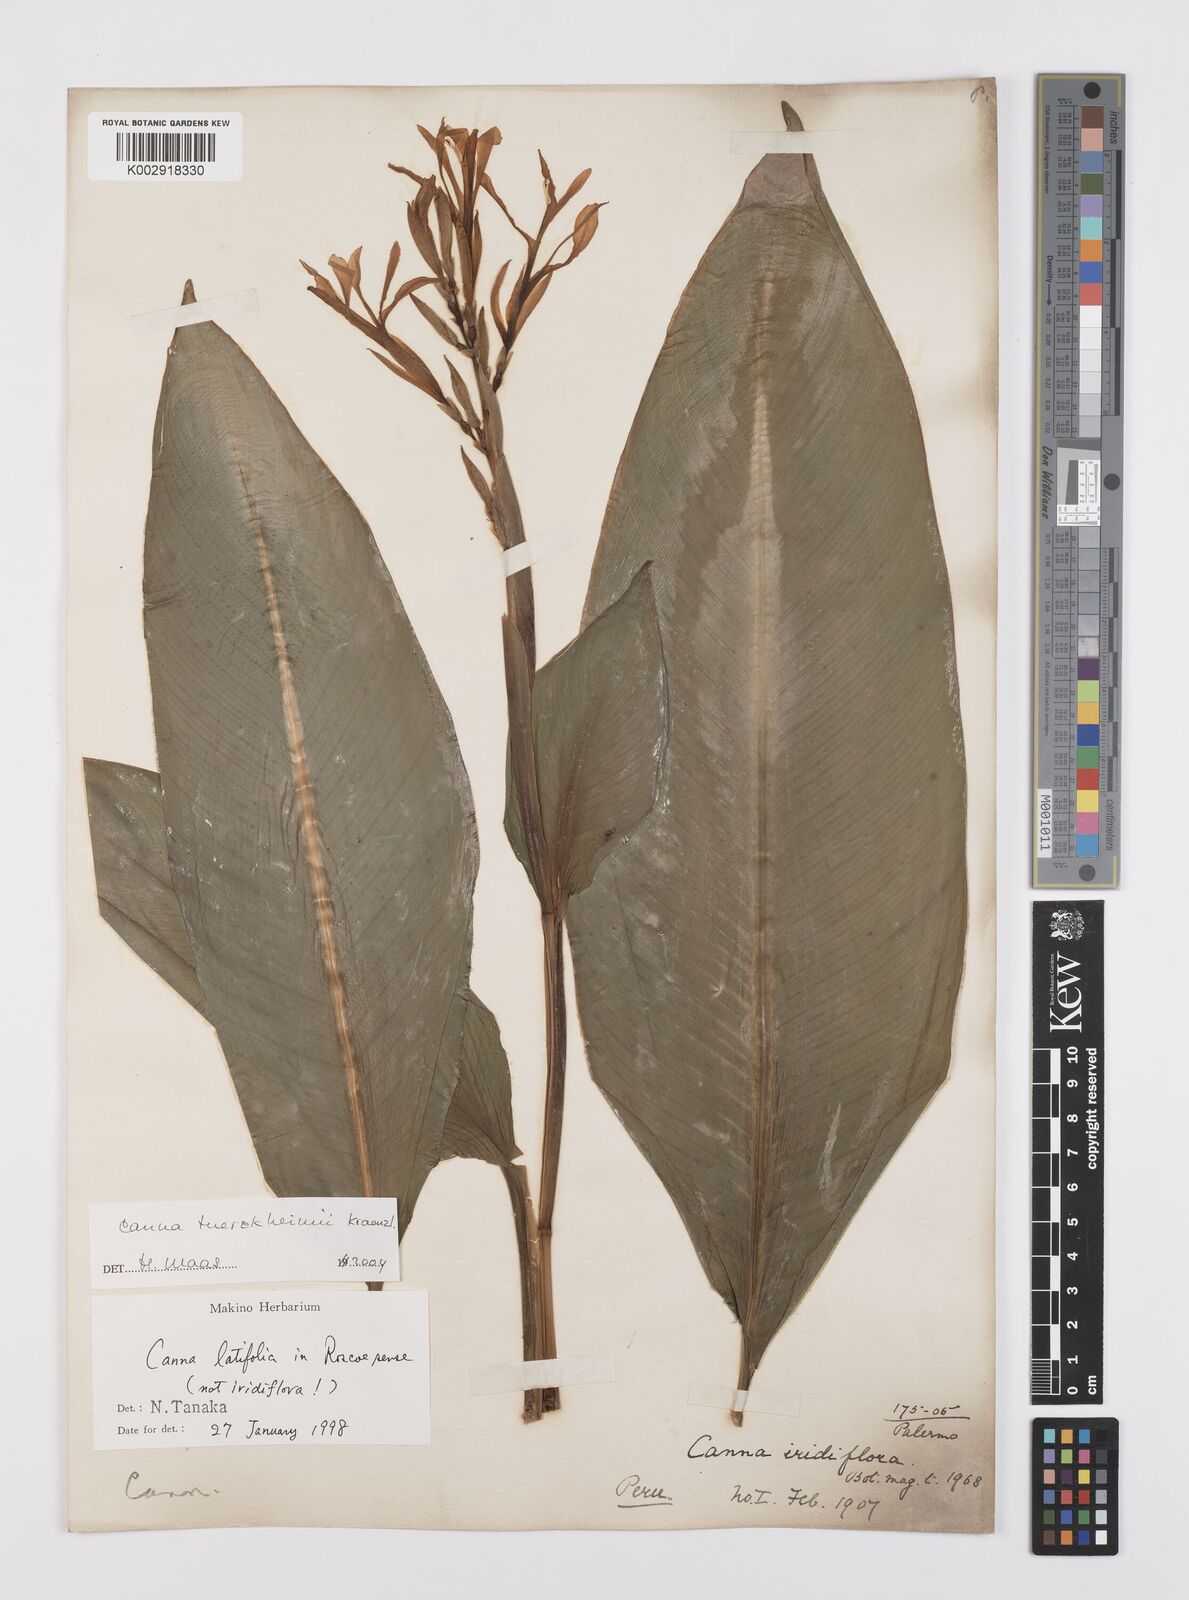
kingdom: Plantae
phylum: Tracheophyta
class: Liliopsida
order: Zingiberales
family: Cannaceae
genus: Canna
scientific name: Canna tuerckheimii
